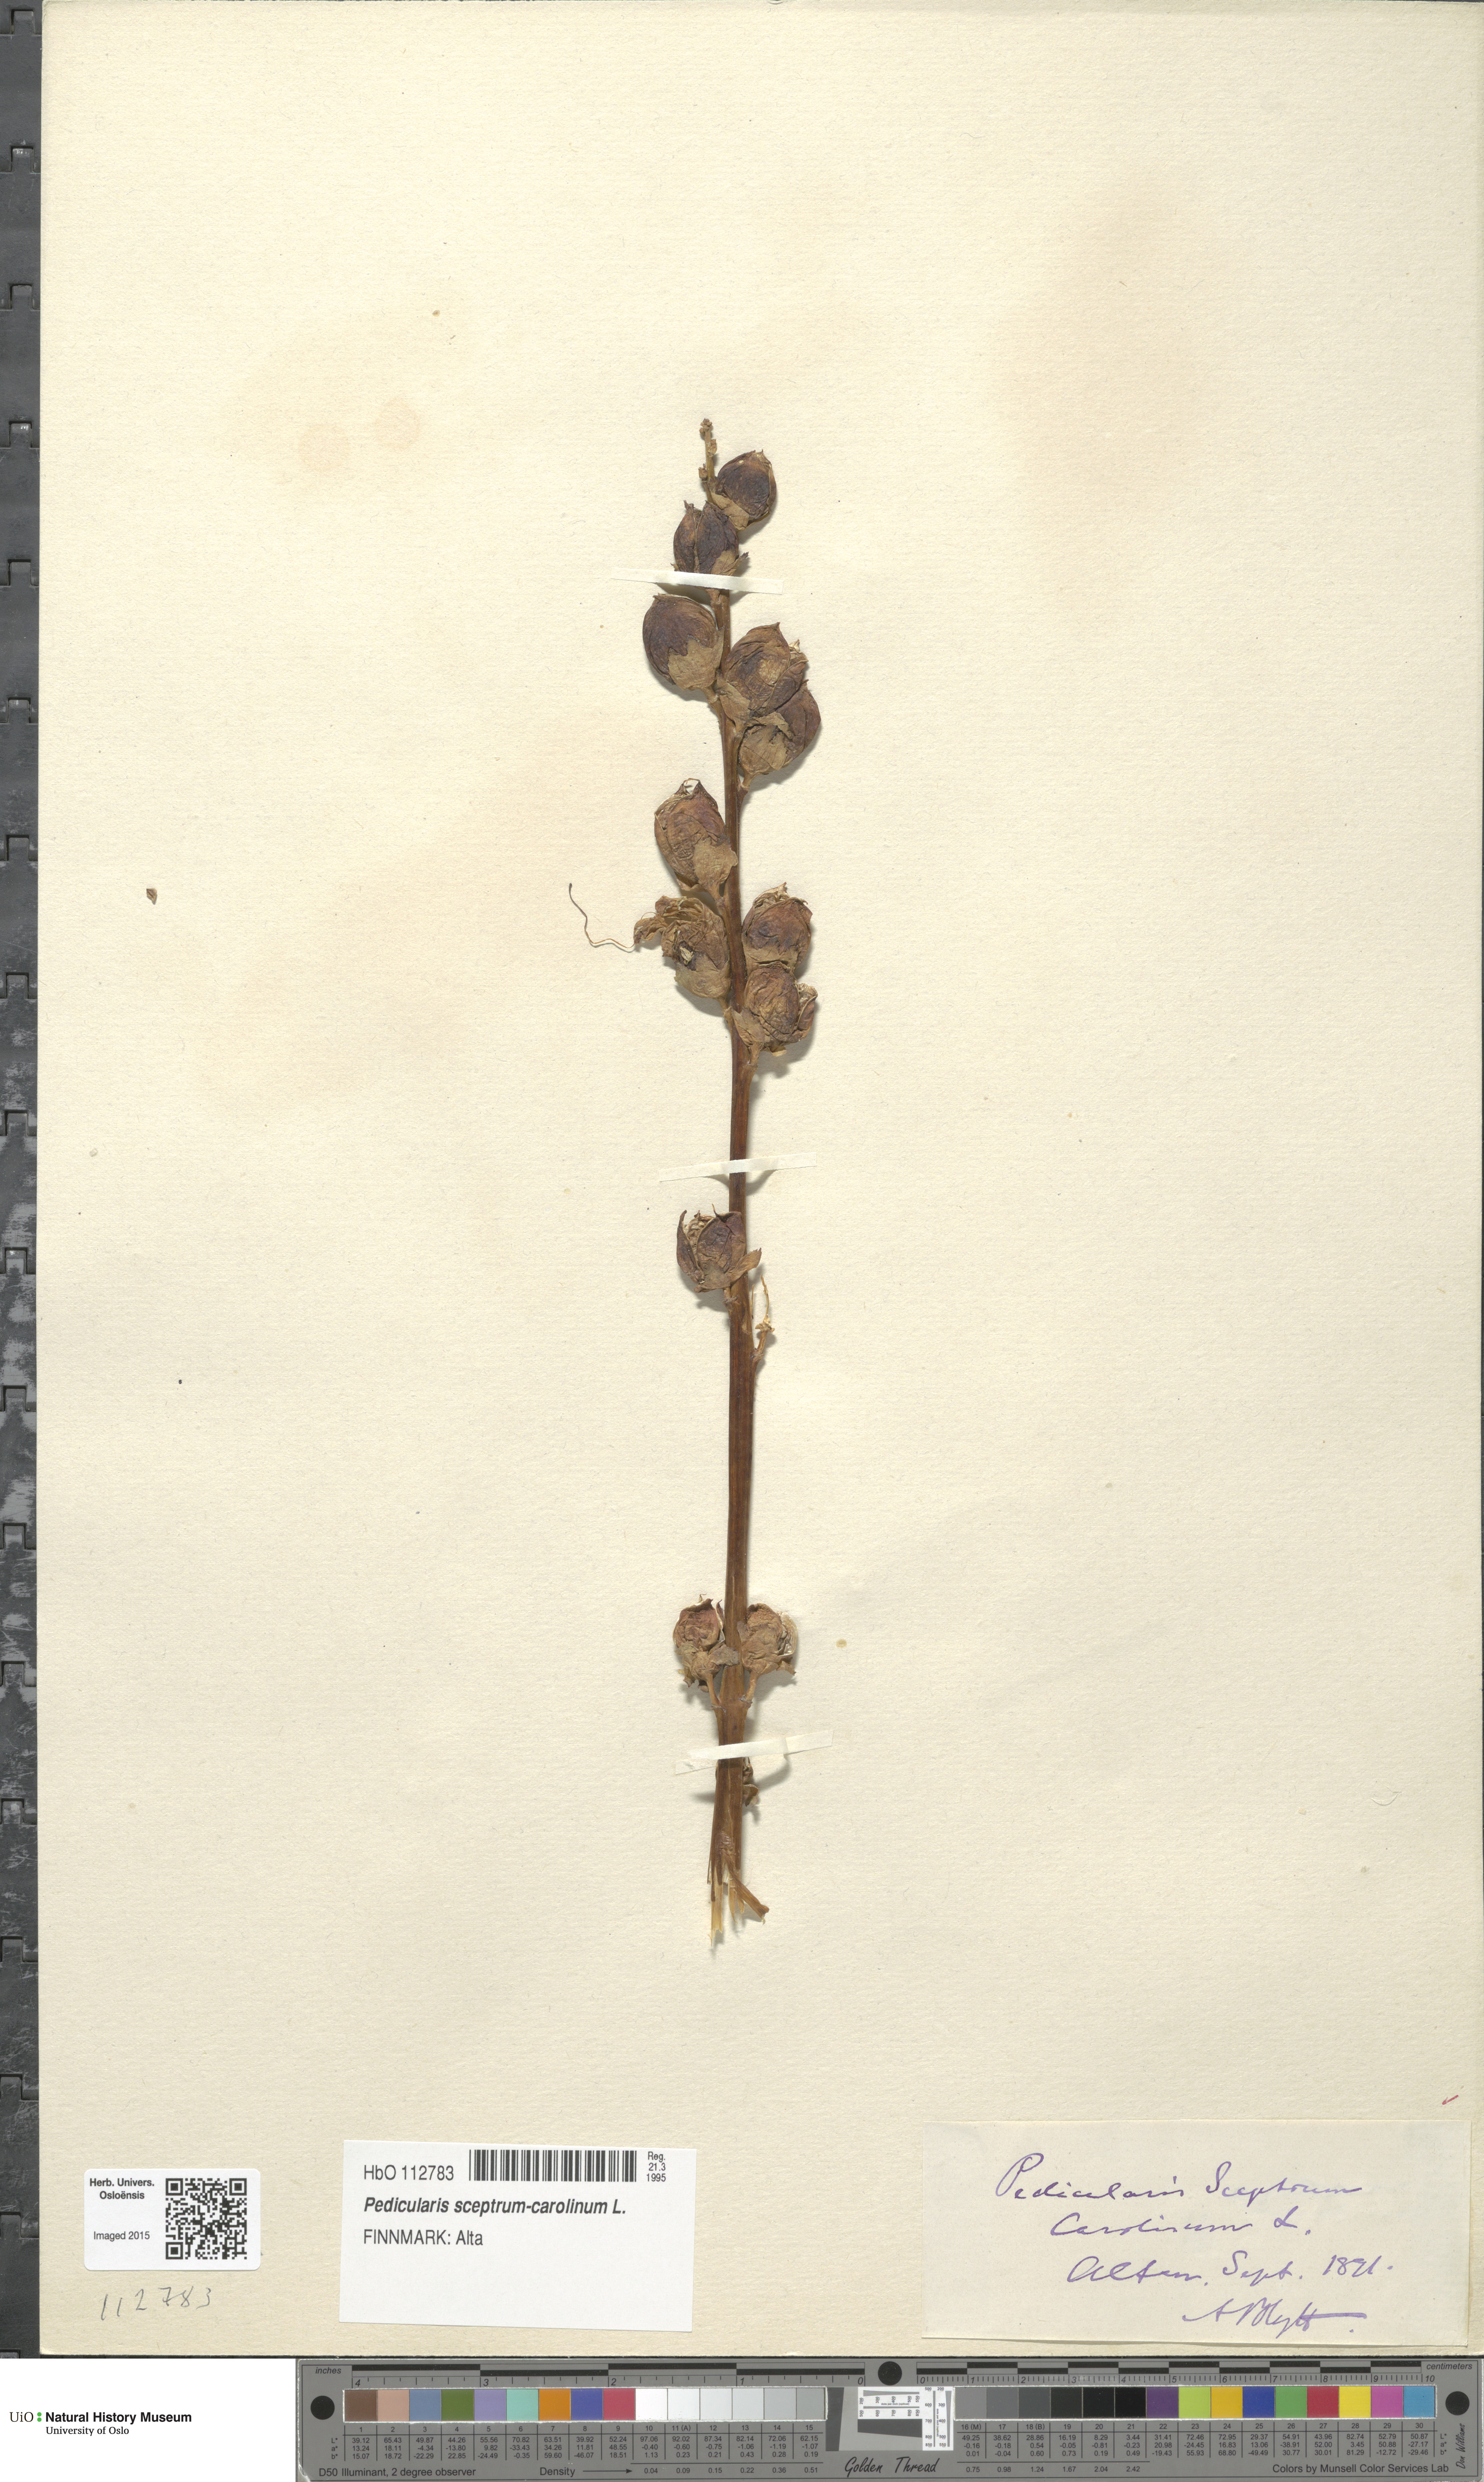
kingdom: Plantae
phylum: Tracheophyta
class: Magnoliopsida
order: Lamiales
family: Orobanchaceae
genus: Pedicularis
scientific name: Pedicularis sceptrum-carolinum
